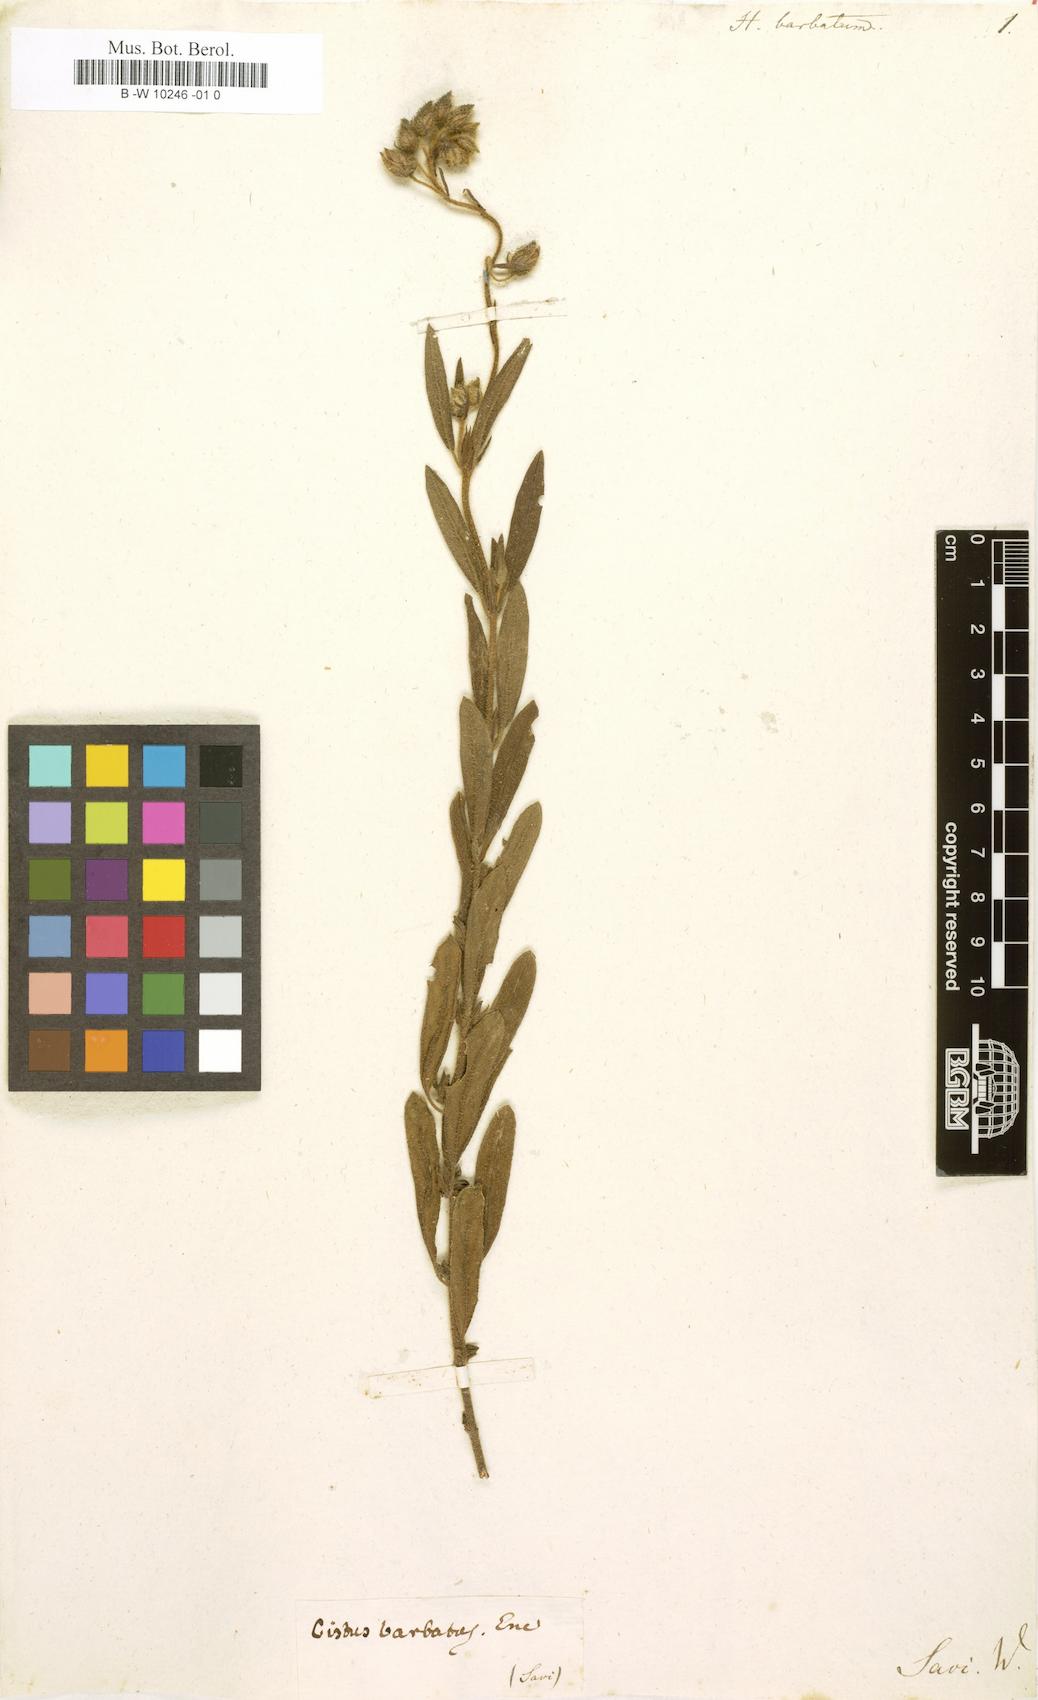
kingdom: Plantae
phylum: Tracheophyta
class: Magnoliopsida
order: Malvales
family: Cistaceae
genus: Helianthemum
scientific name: Helianthemum nummularium
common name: Common rock-rose
